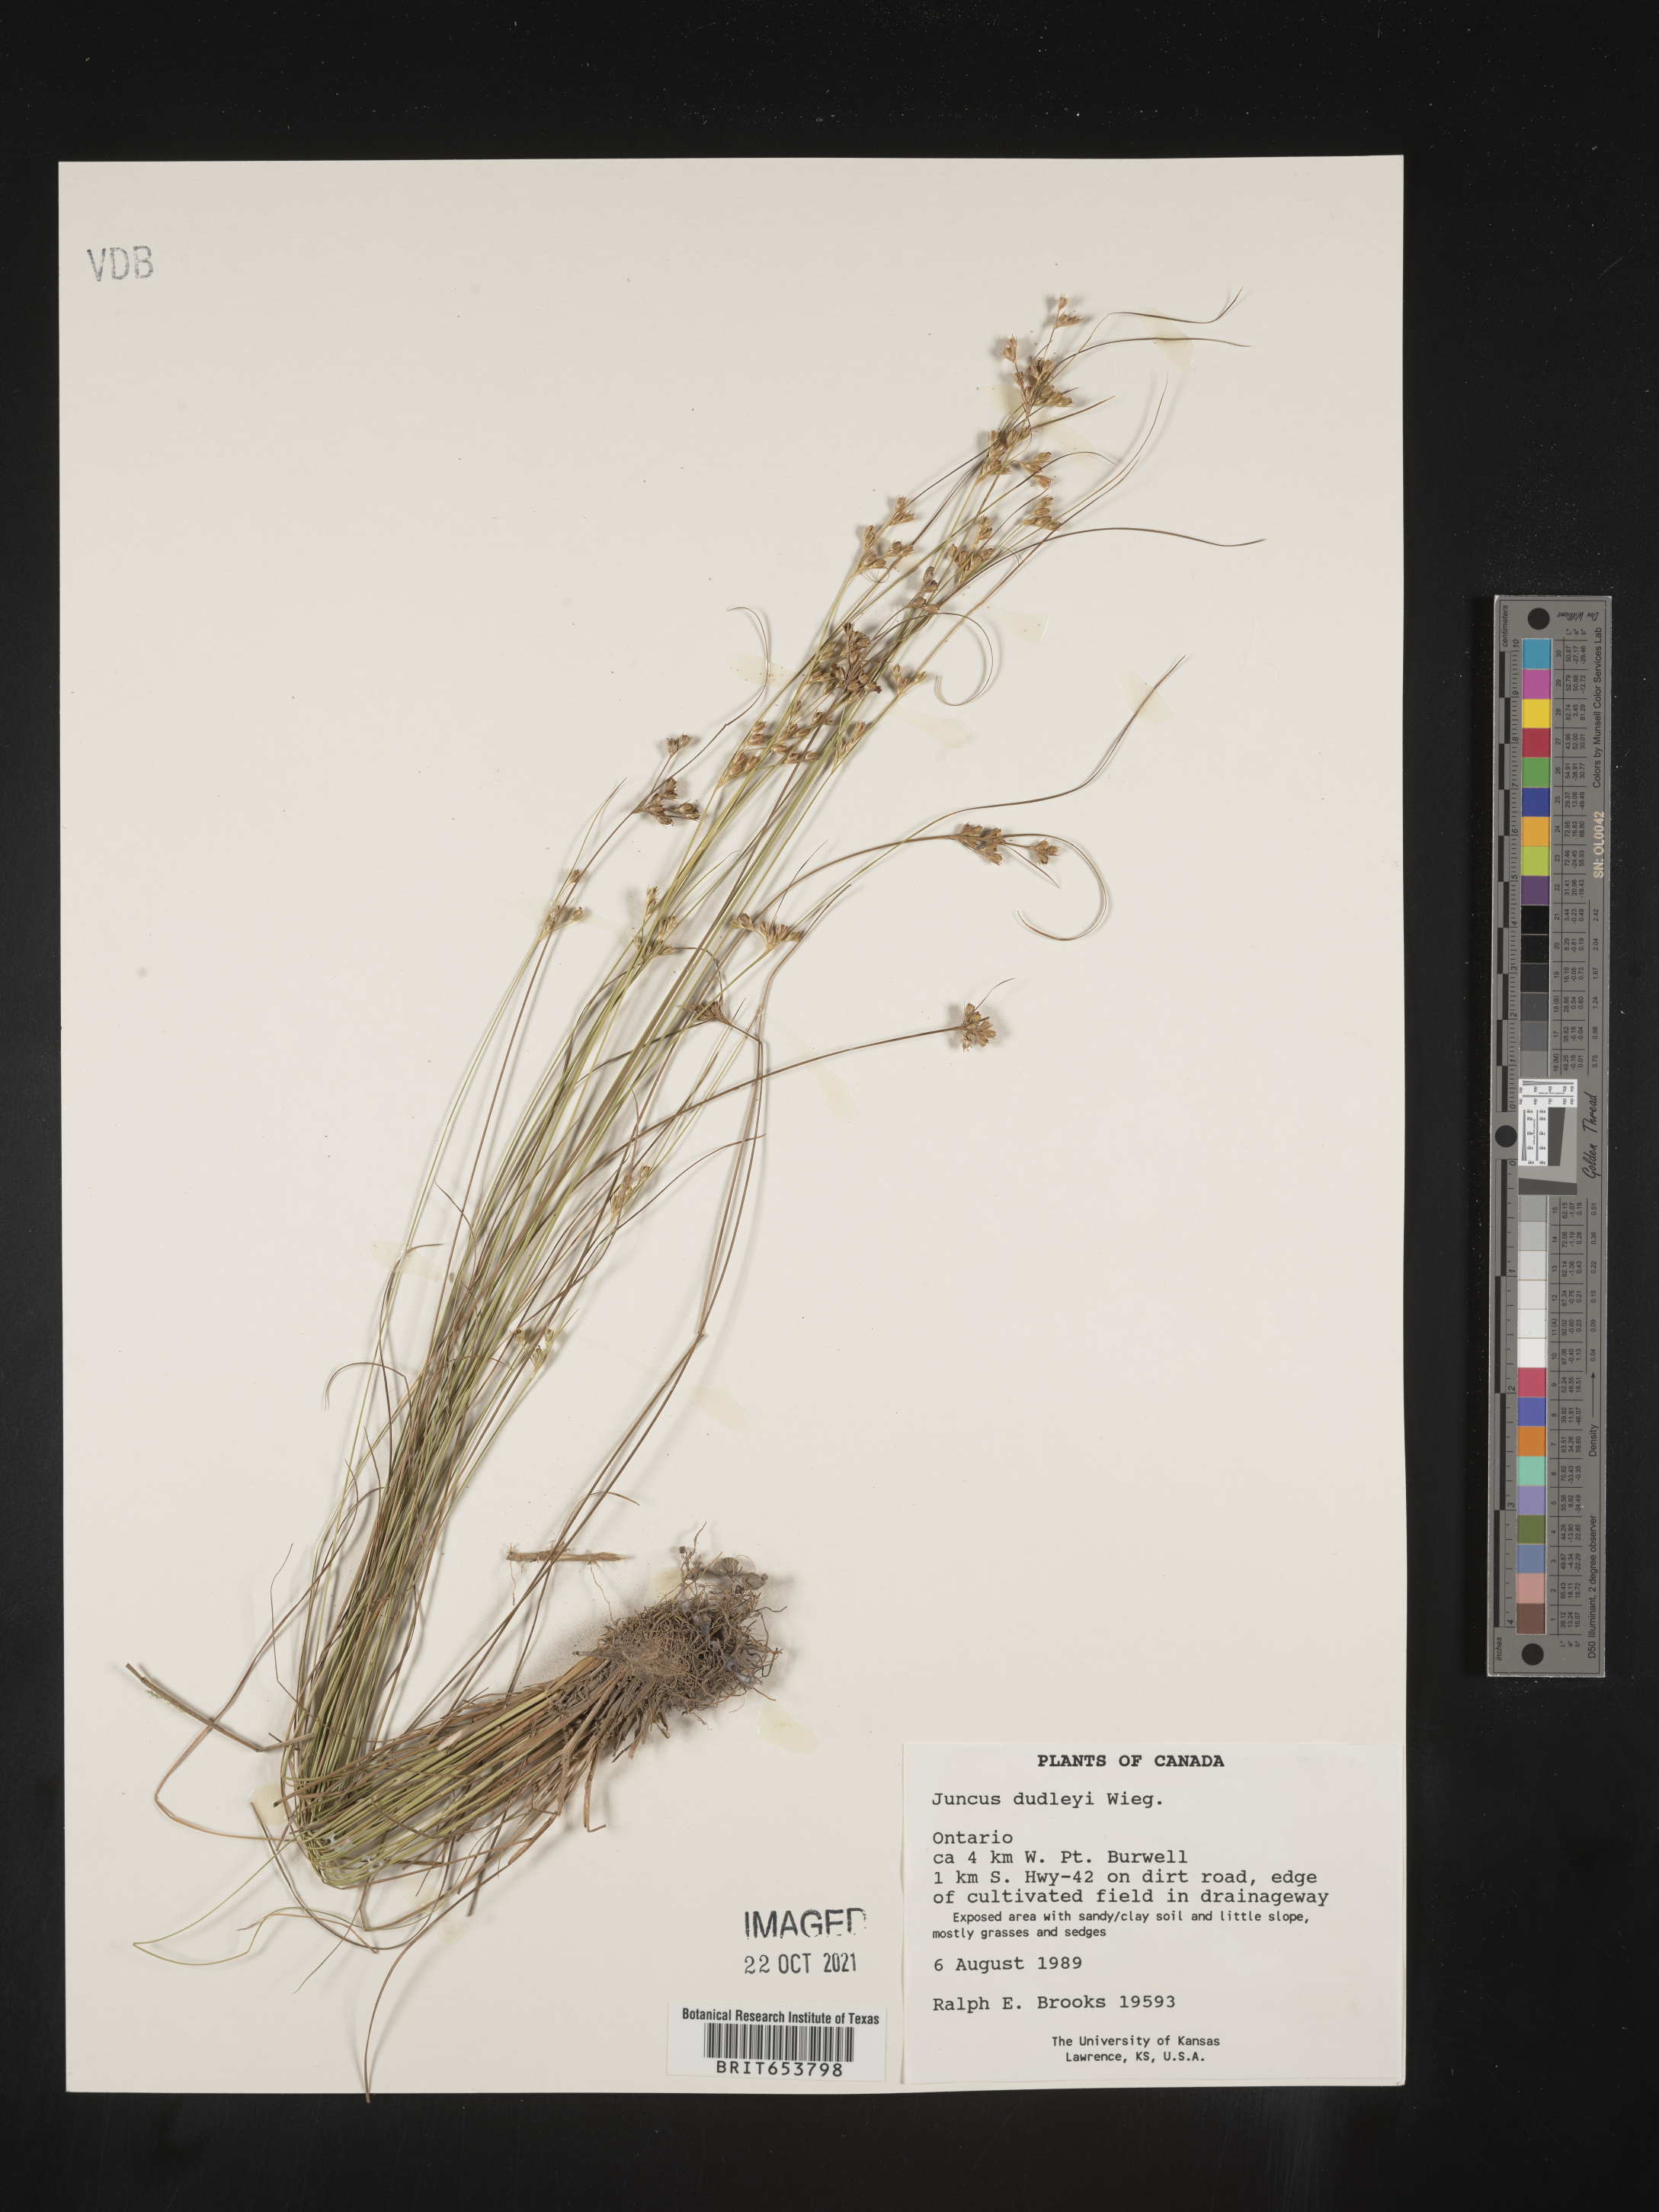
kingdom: Plantae
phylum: Tracheophyta
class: Liliopsida
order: Poales
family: Juncaceae
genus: Juncus
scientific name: Juncus
